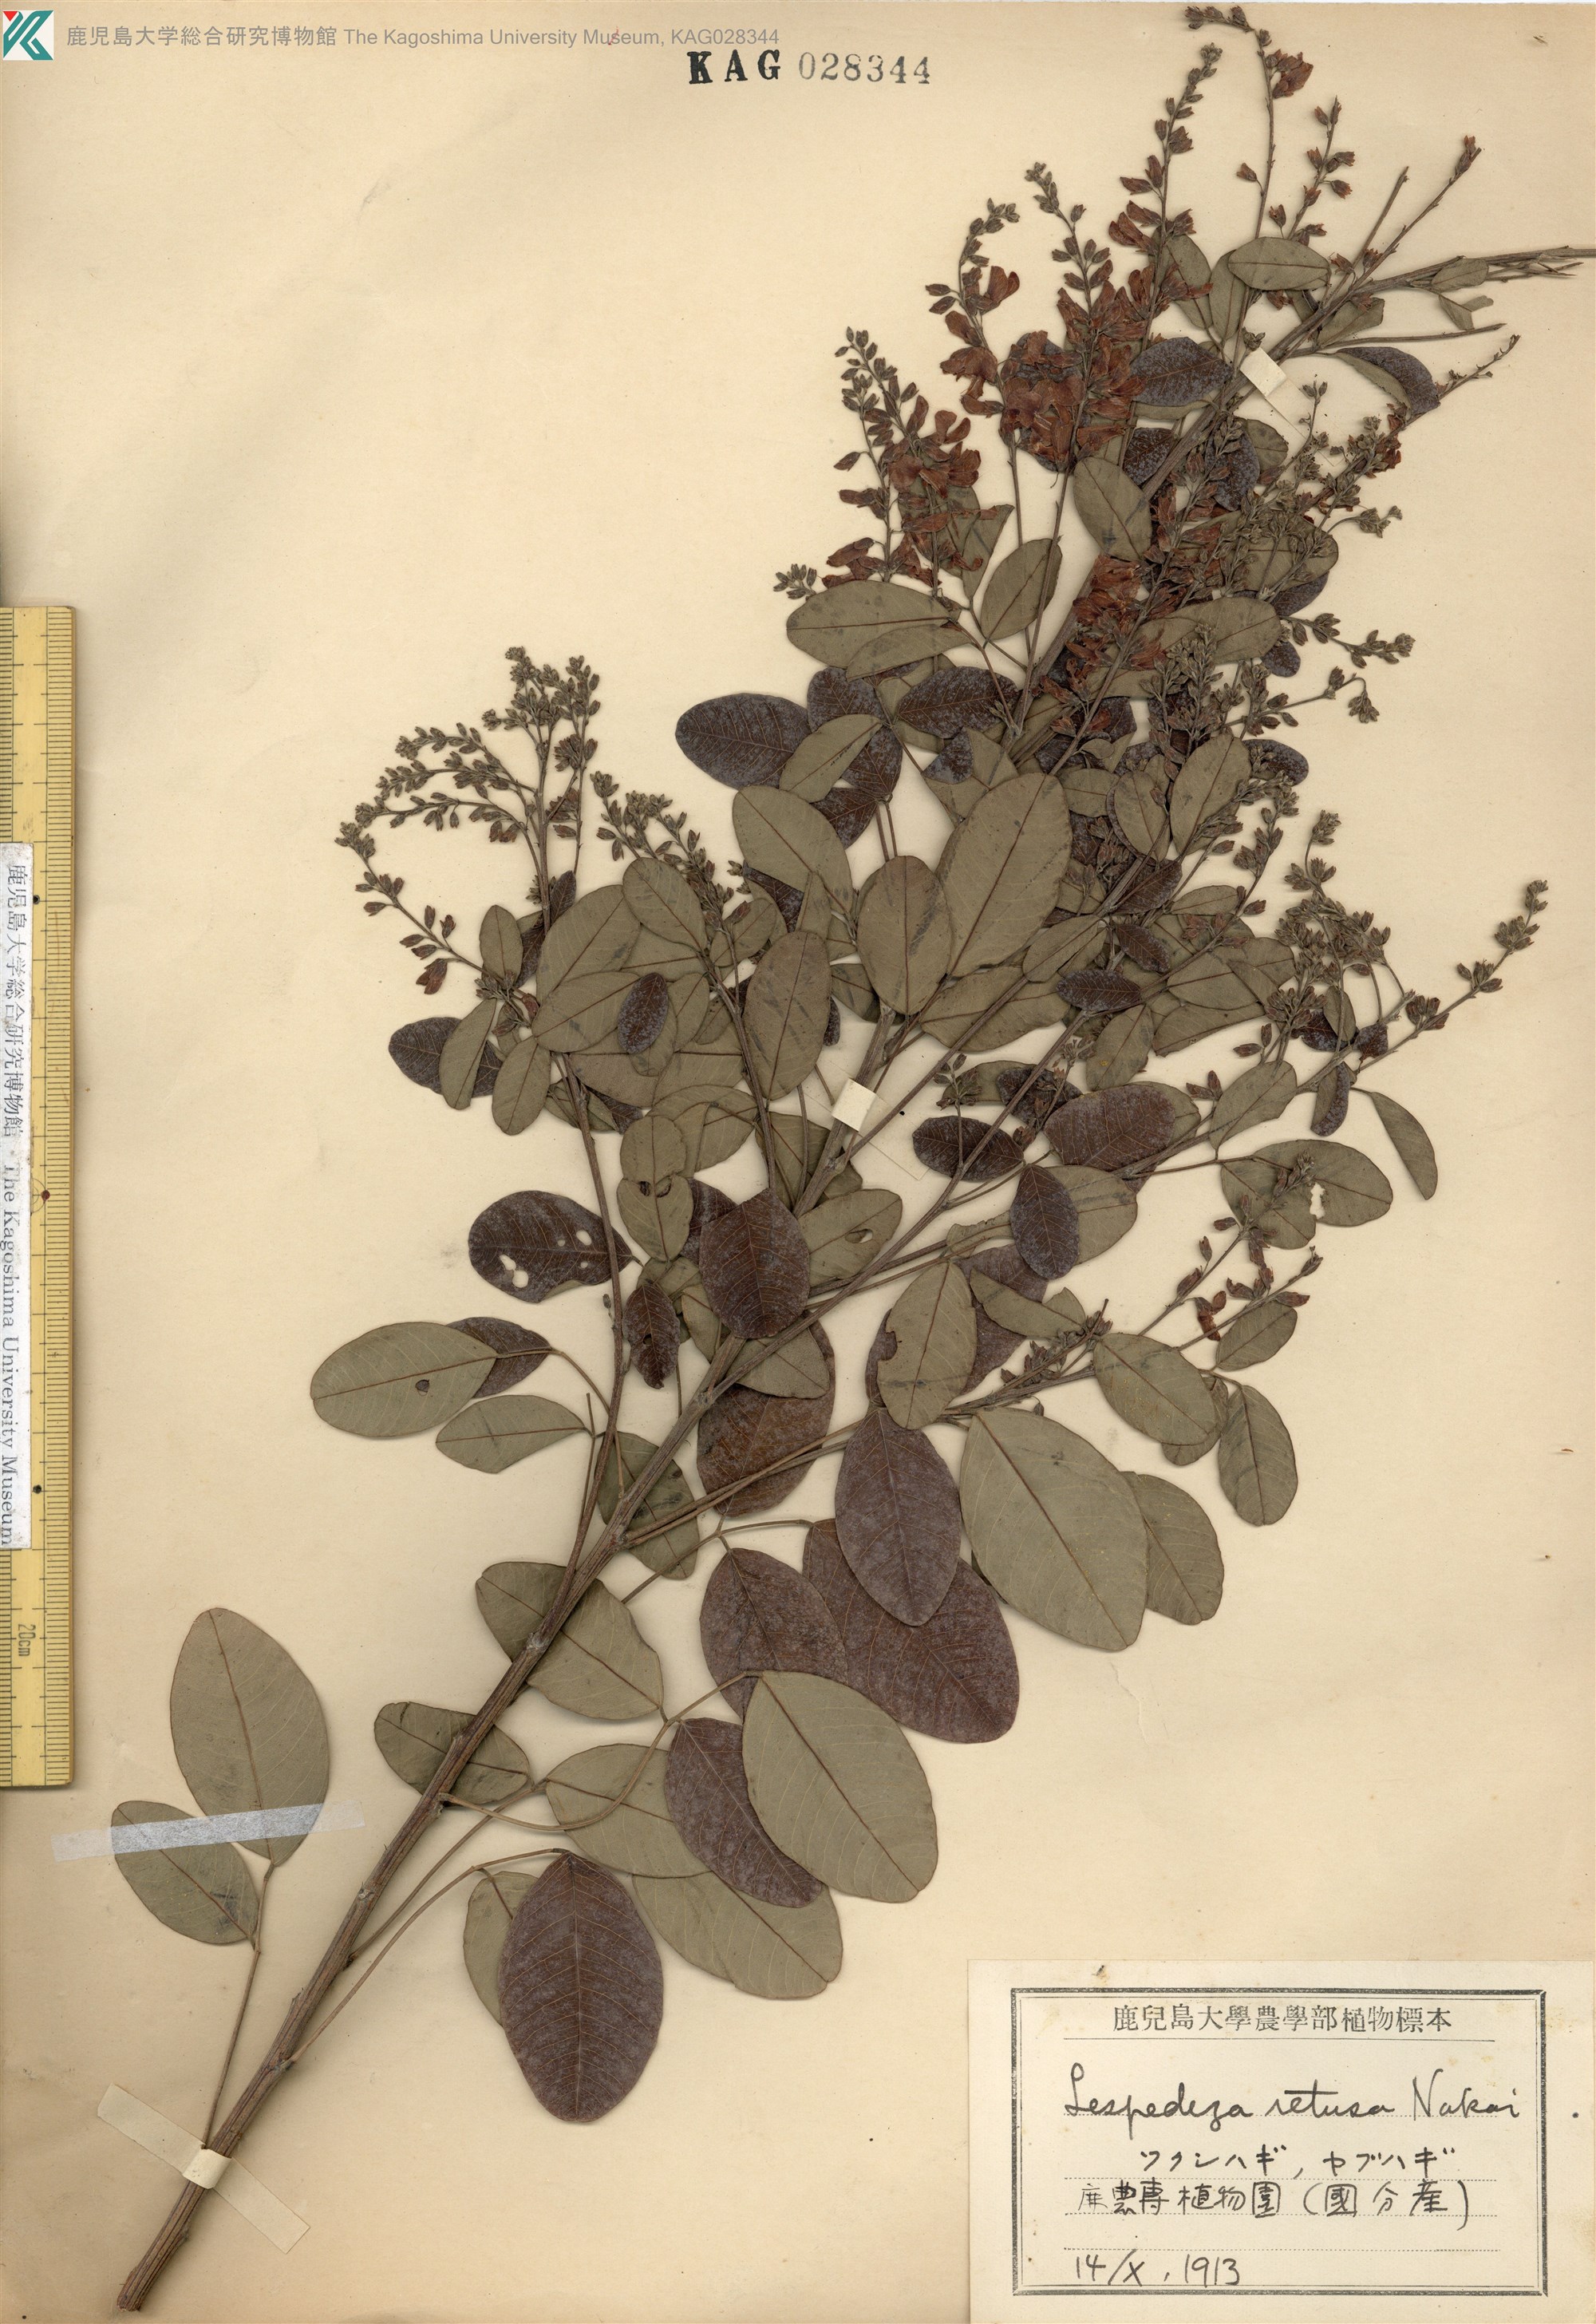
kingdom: Plantae
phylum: Tracheophyta
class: Magnoliopsida
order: Fabales
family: Fabaceae
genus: Lespedeza
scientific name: Lespedeza homoloba
